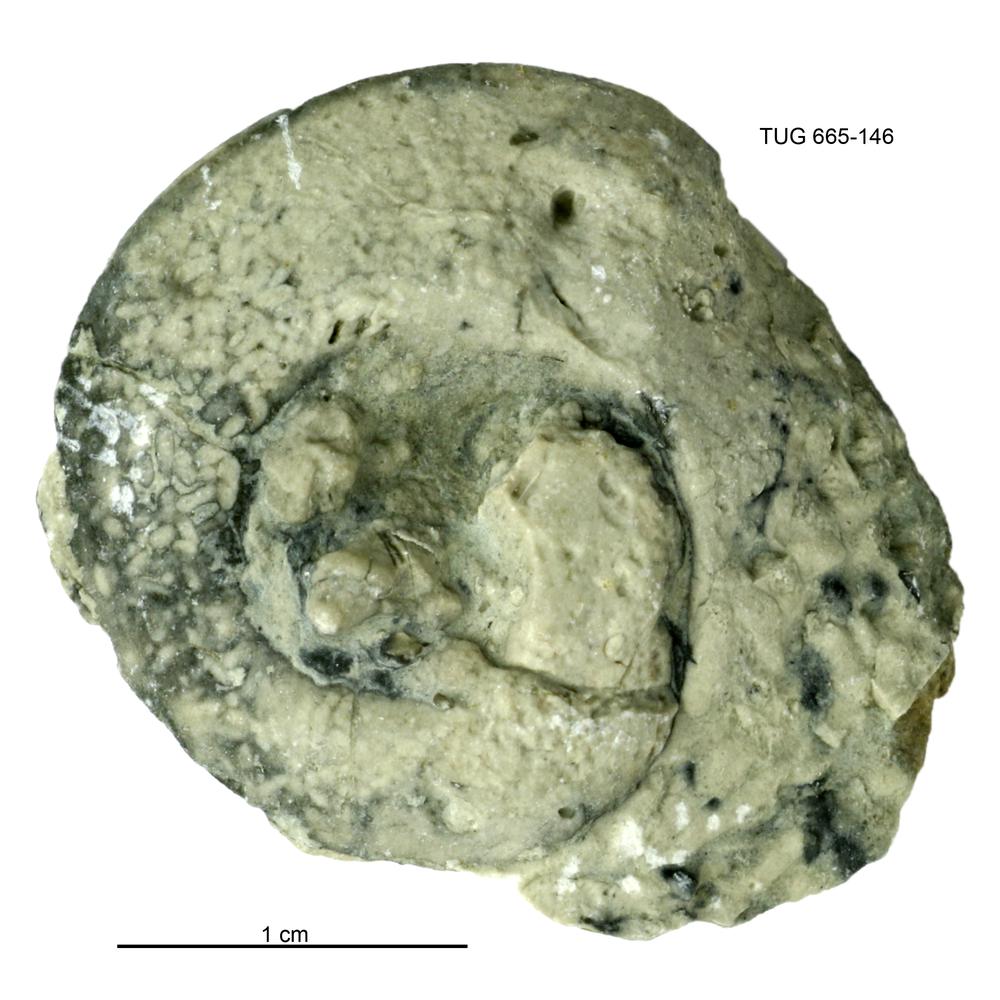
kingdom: Animalia
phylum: Mollusca
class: Gastropoda
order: Pleurotomariida
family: Eotomariidae
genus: Liospira
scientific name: Liospira Raphistoma wesenbergense
